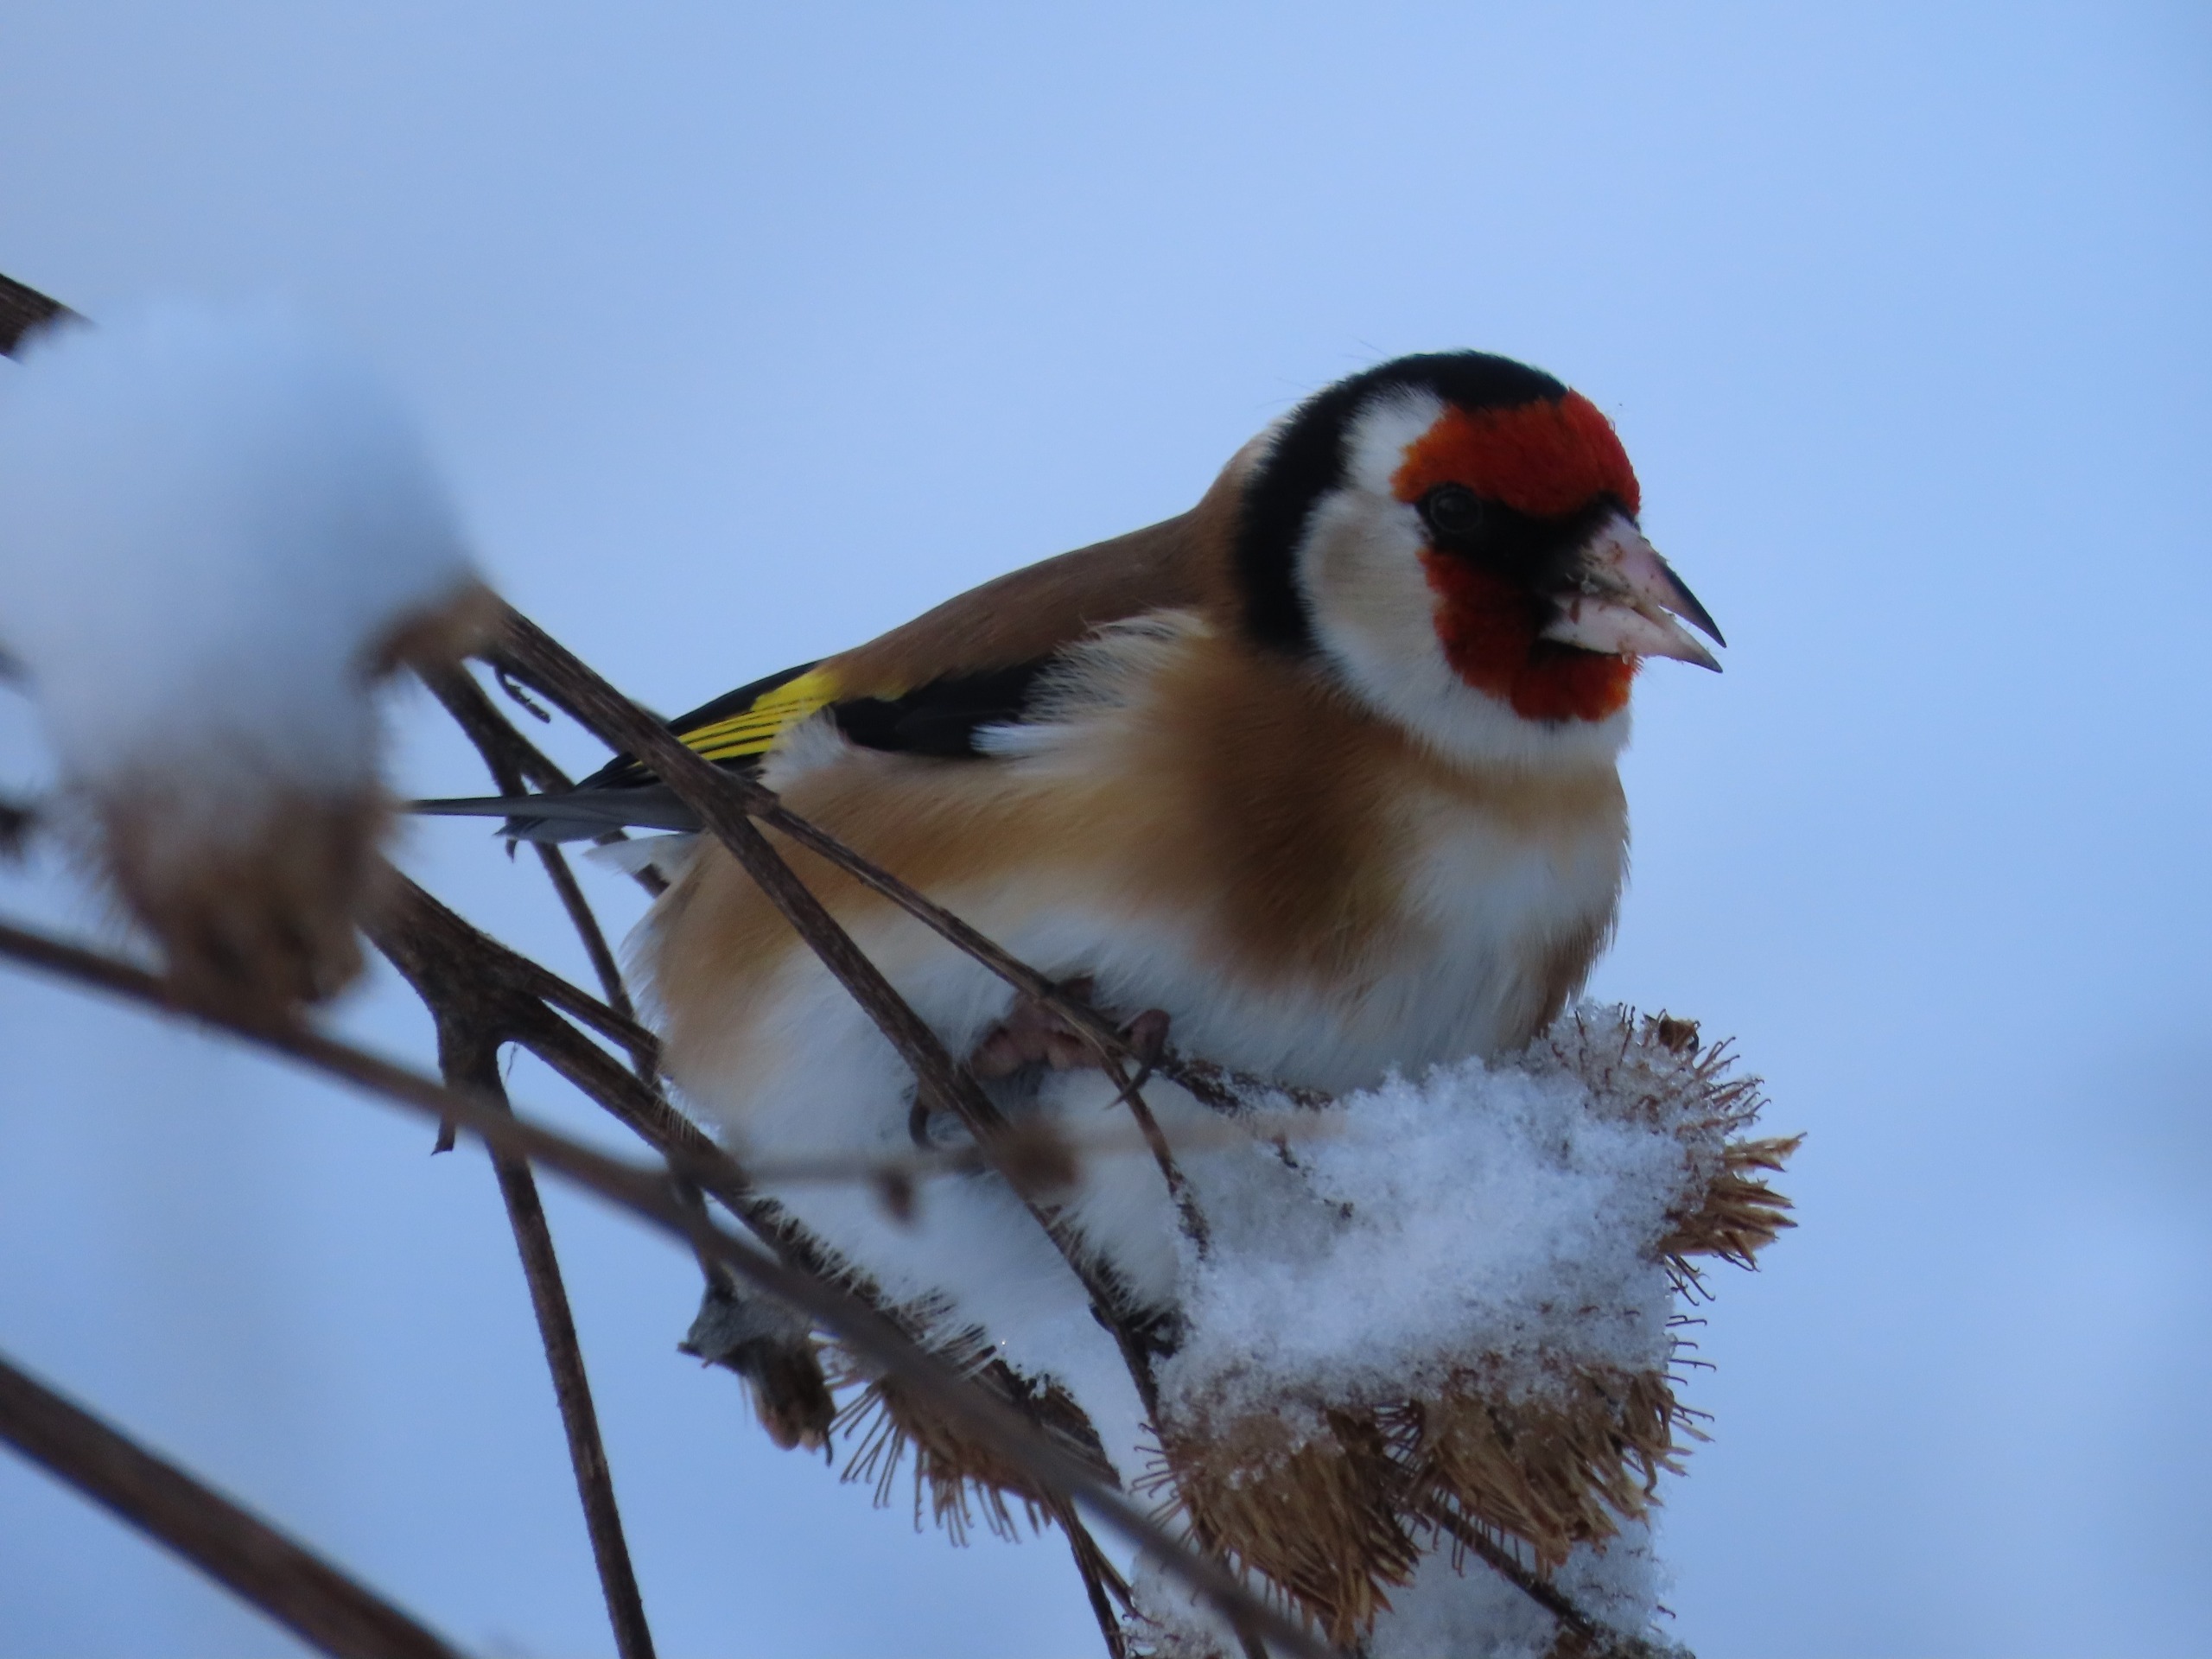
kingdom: Animalia
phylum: Chordata
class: Aves
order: Passeriformes
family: Fringillidae
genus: Carduelis
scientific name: Carduelis carduelis
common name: Stillits
